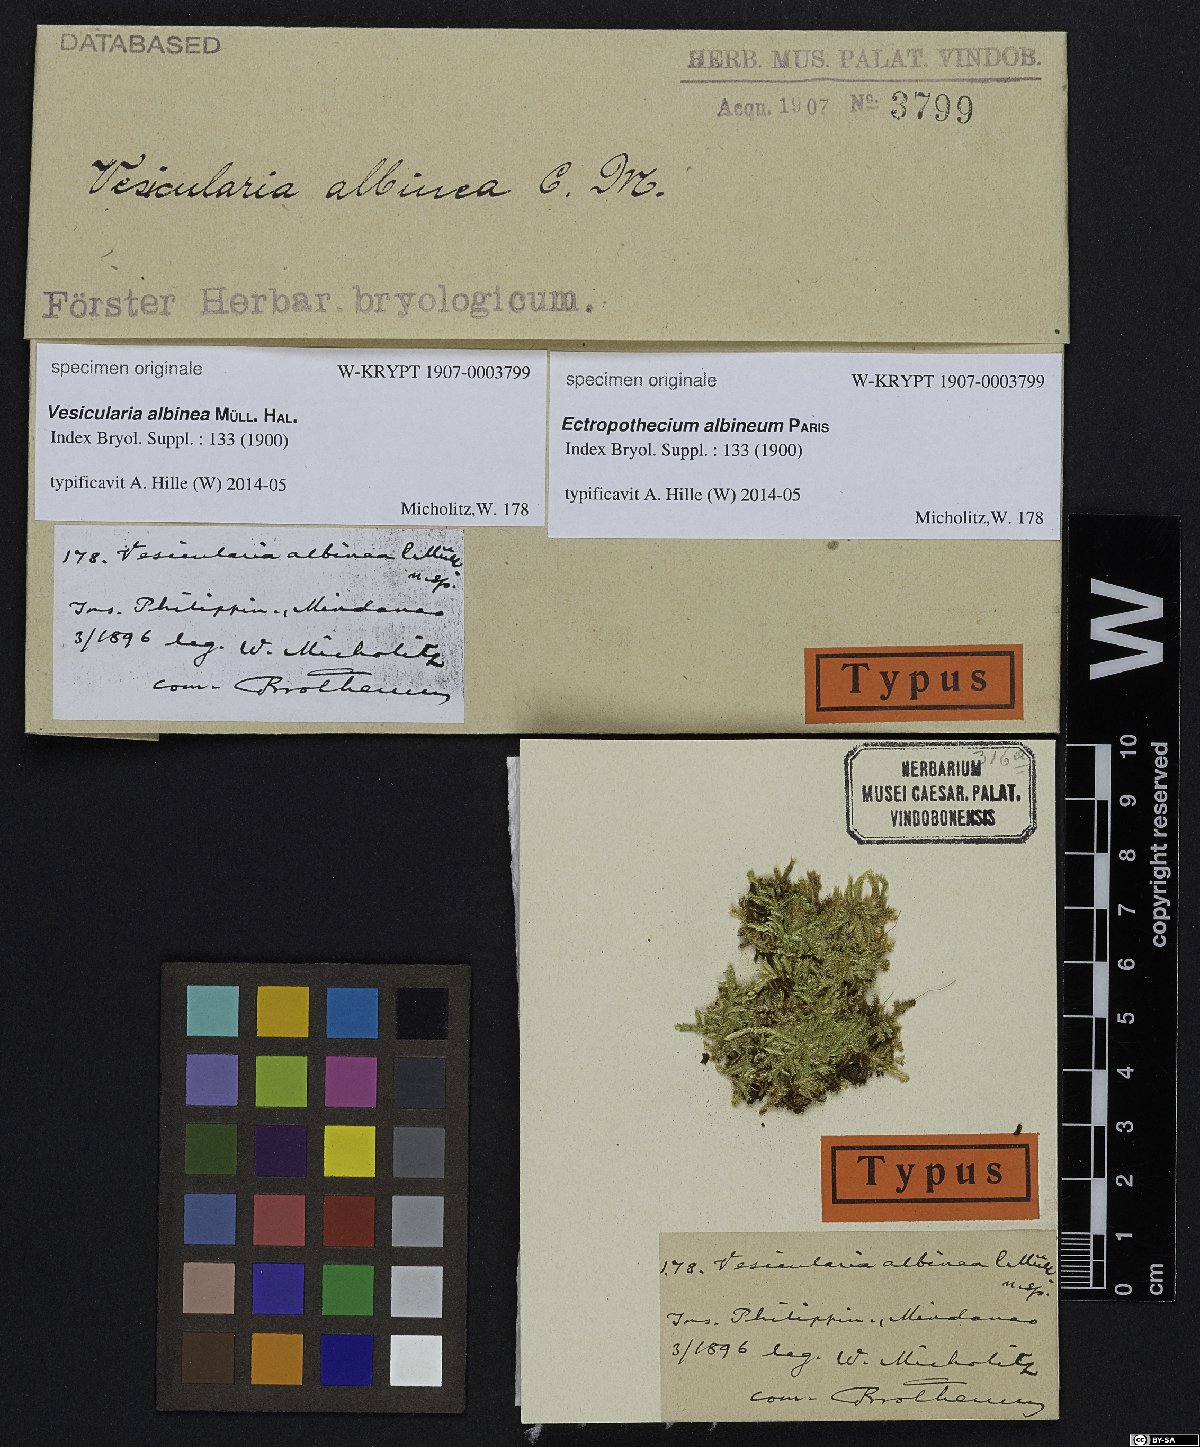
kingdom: Plantae
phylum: Bryophyta
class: Bryopsida
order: Hypnales
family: Hypnaceae
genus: Ectropothecium
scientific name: Ectropothecium
